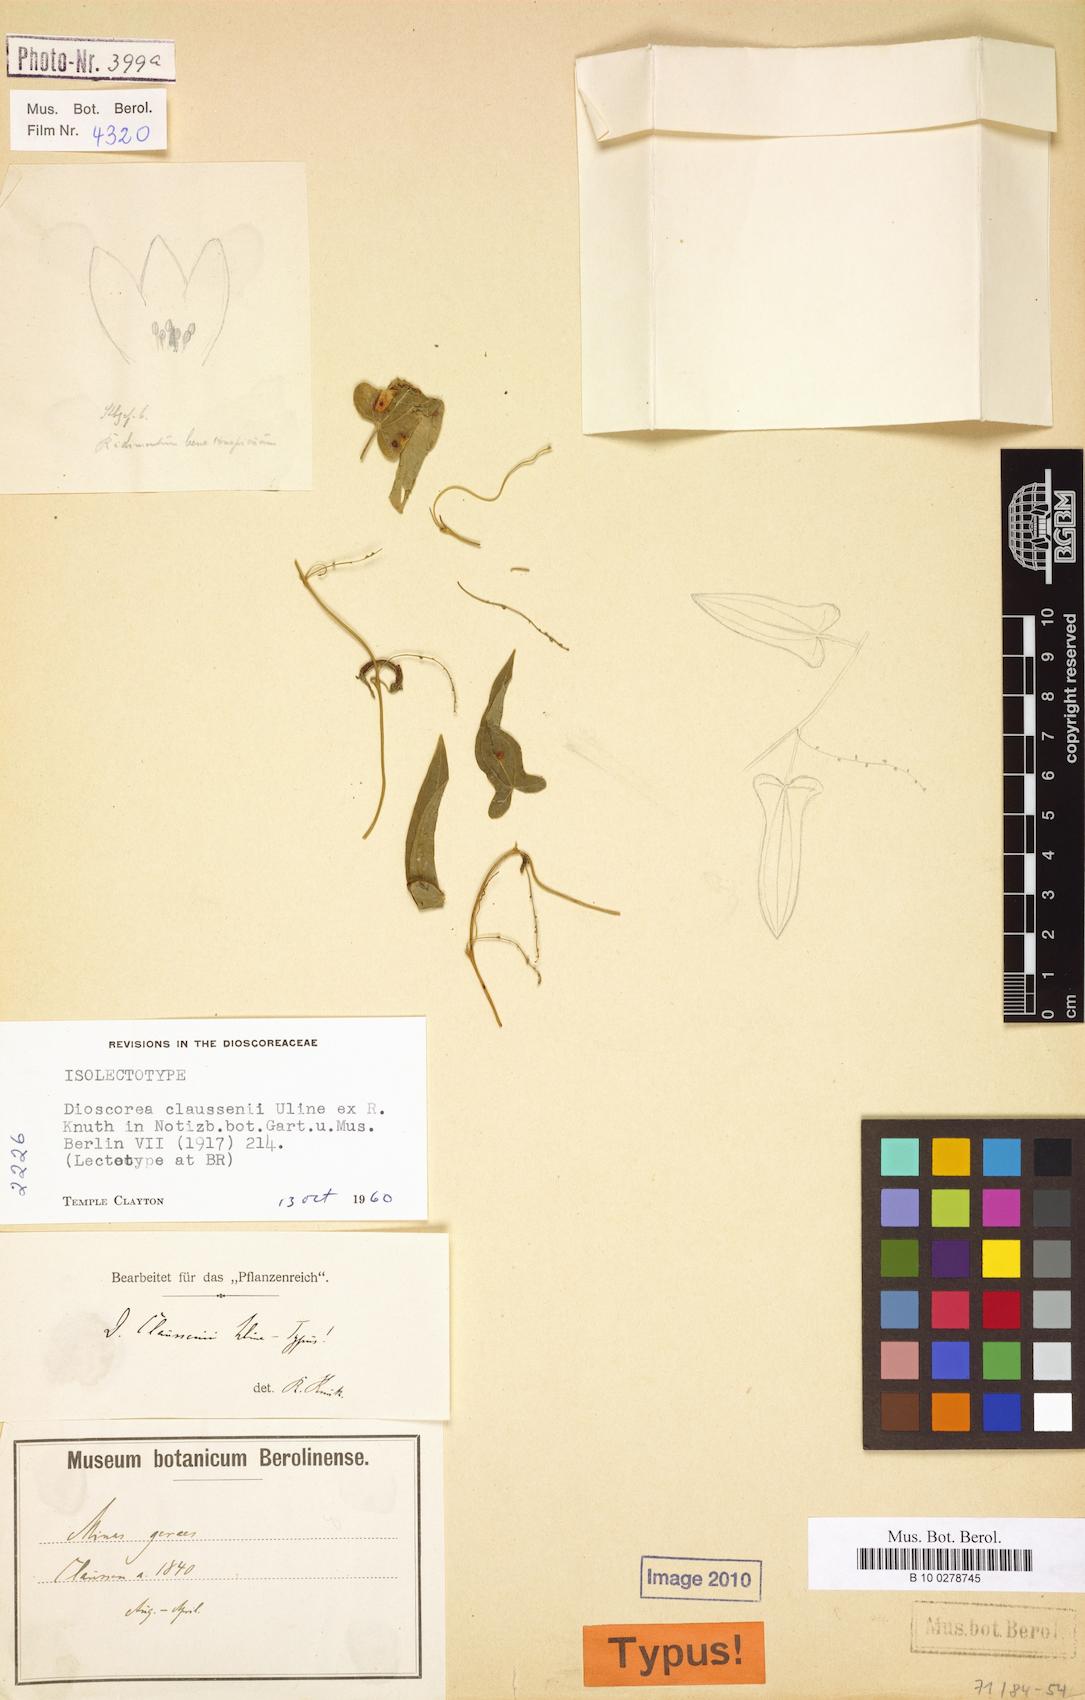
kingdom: Plantae
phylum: Tracheophyta
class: Liliopsida
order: Dioscoreales
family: Dioscoreaceae
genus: Dioscorea
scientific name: Dioscorea claussenii
